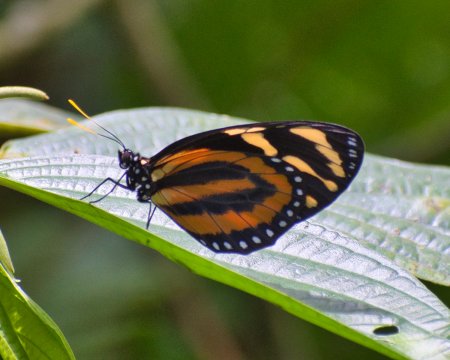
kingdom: Animalia
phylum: Arthropoda
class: Insecta
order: Lepidoptera
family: Nymphalidae
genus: Lycorea
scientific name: Lycorea cleobaea
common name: Tiger Mimic-Queen
